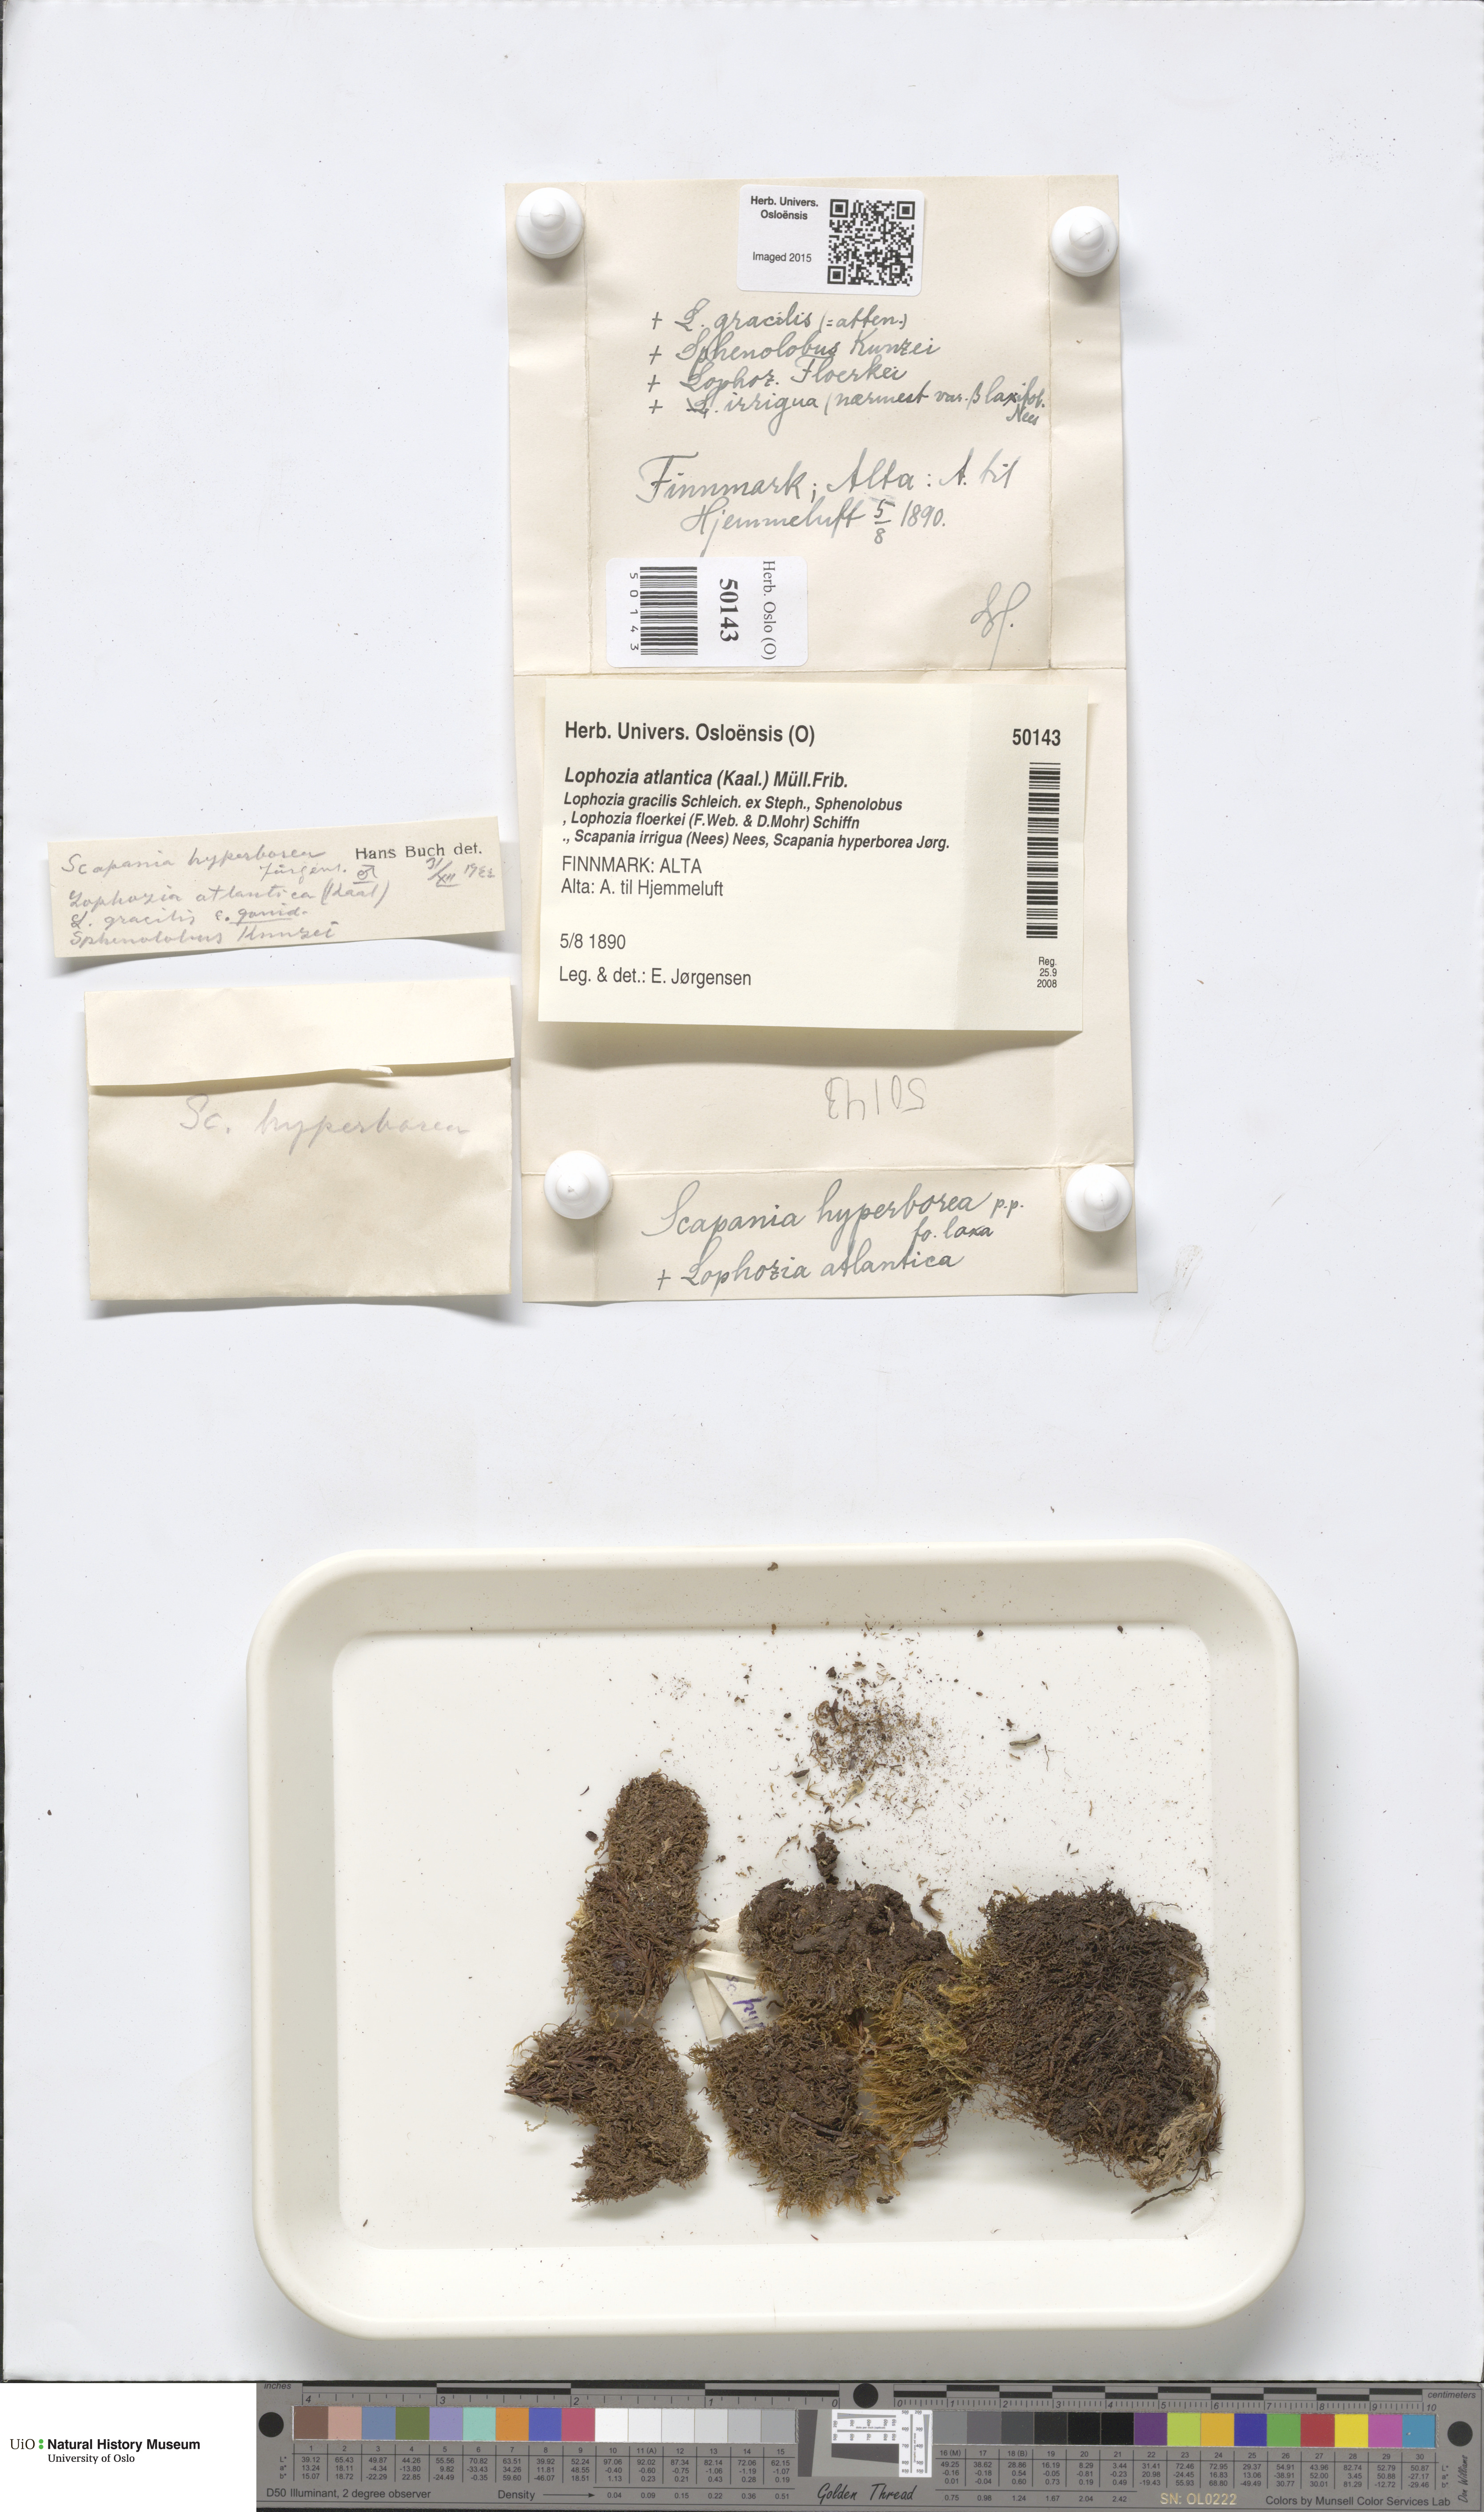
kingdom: Plantae
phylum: Marchantiophyta
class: Jungermanniopsida
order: Jungermanniales
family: Anastrophyllaceae
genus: Orthocaulis
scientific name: Orthocaulis atlanticus
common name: Atlantic pawwort
